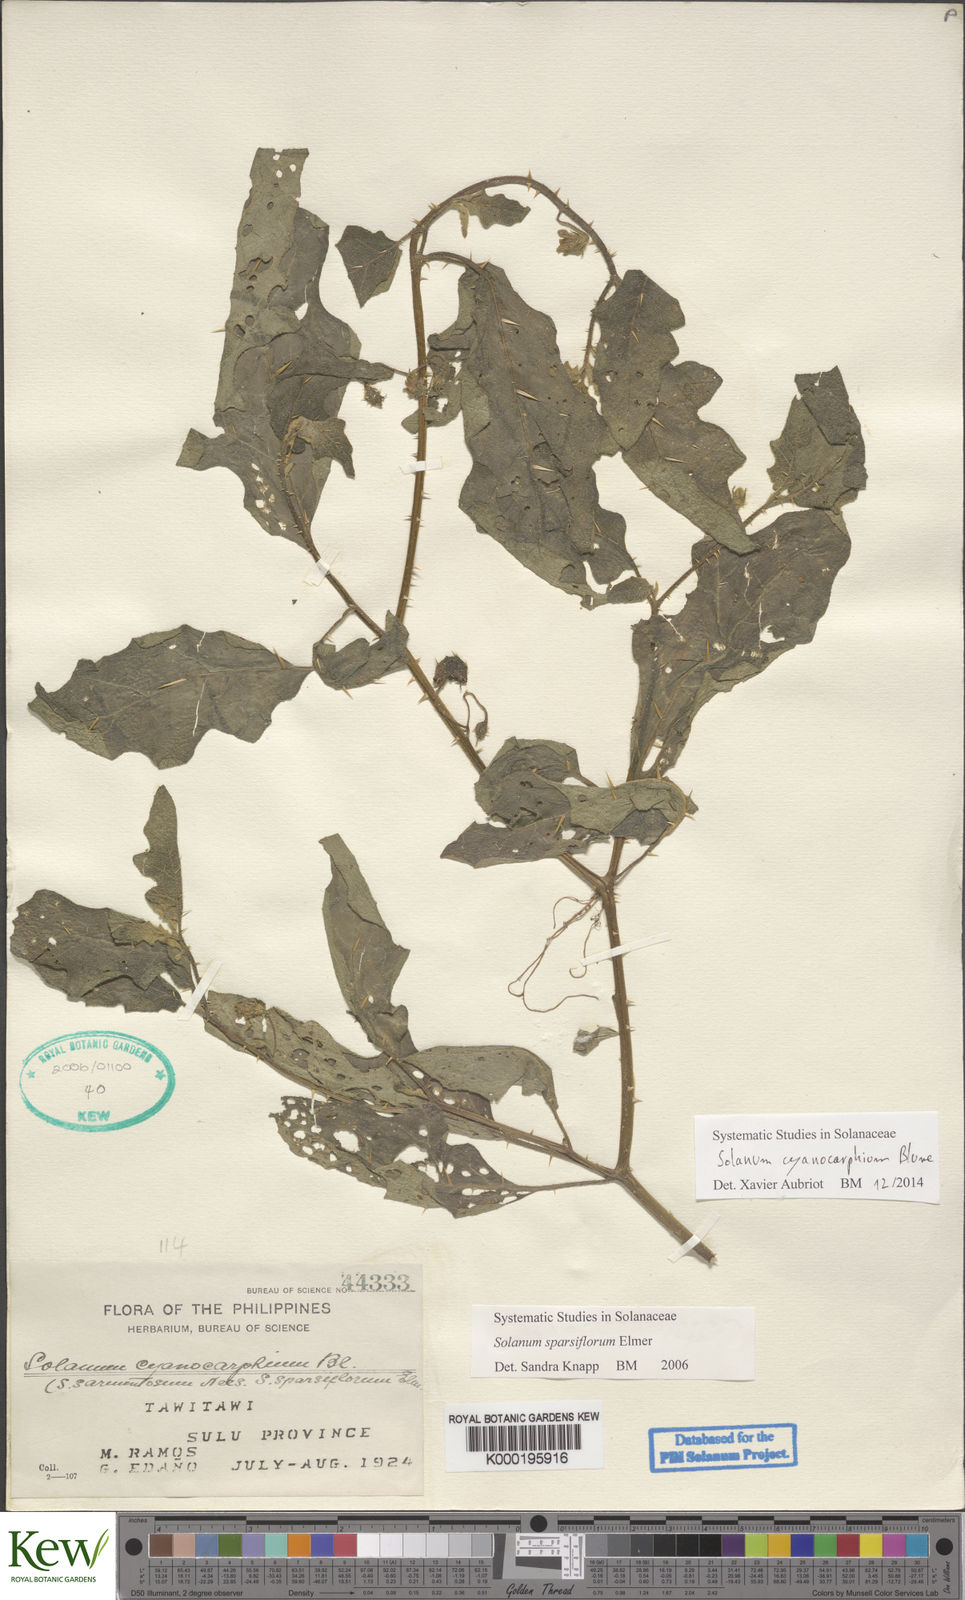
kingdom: Plantae
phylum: Tracheophyta
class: Magnoliopsida
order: Solanales
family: Solanaceae
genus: Solanum
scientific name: Solanum cyanocarphium
